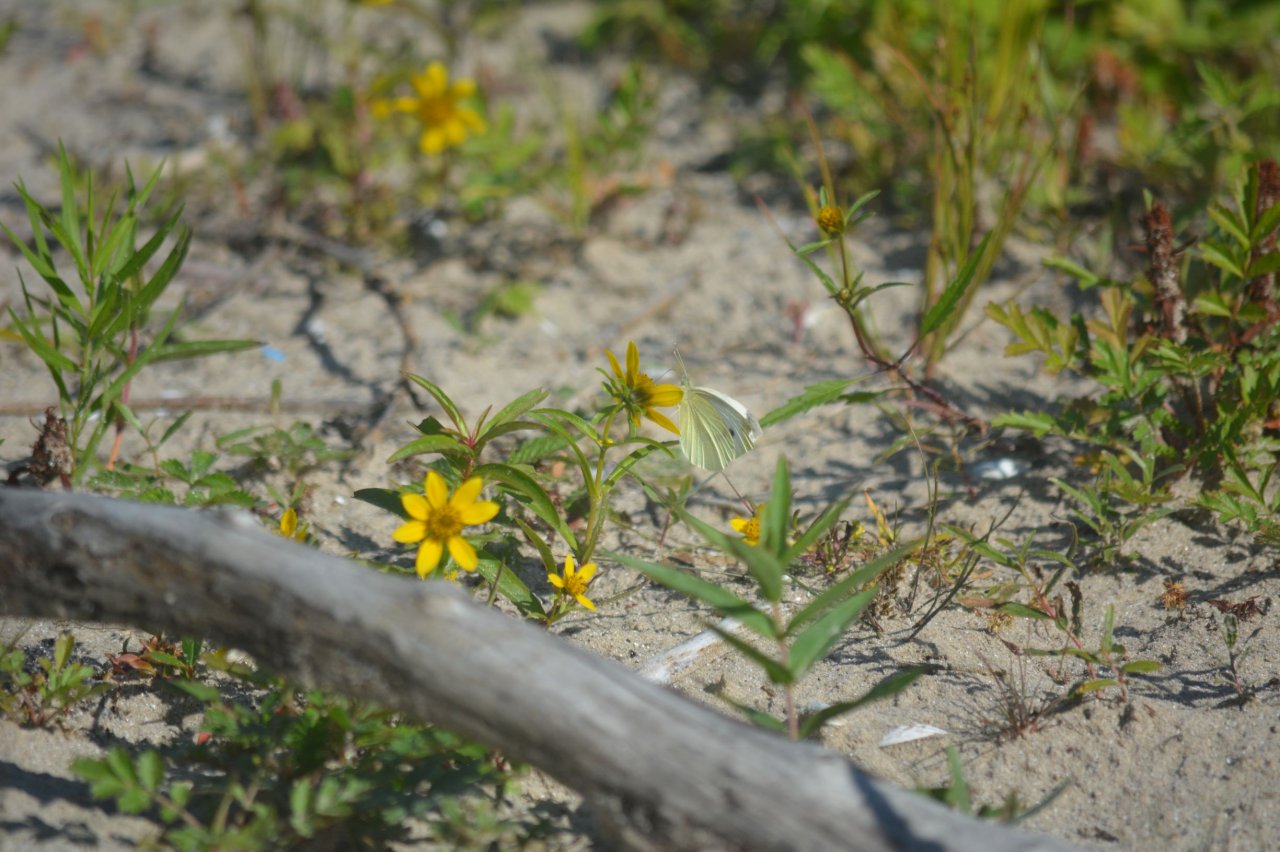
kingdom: Animalia
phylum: Arthropoda
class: Insecta
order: Lepidoptera
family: Pieridae
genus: Pieris
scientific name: Pieris rapae
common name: Cabbage White
